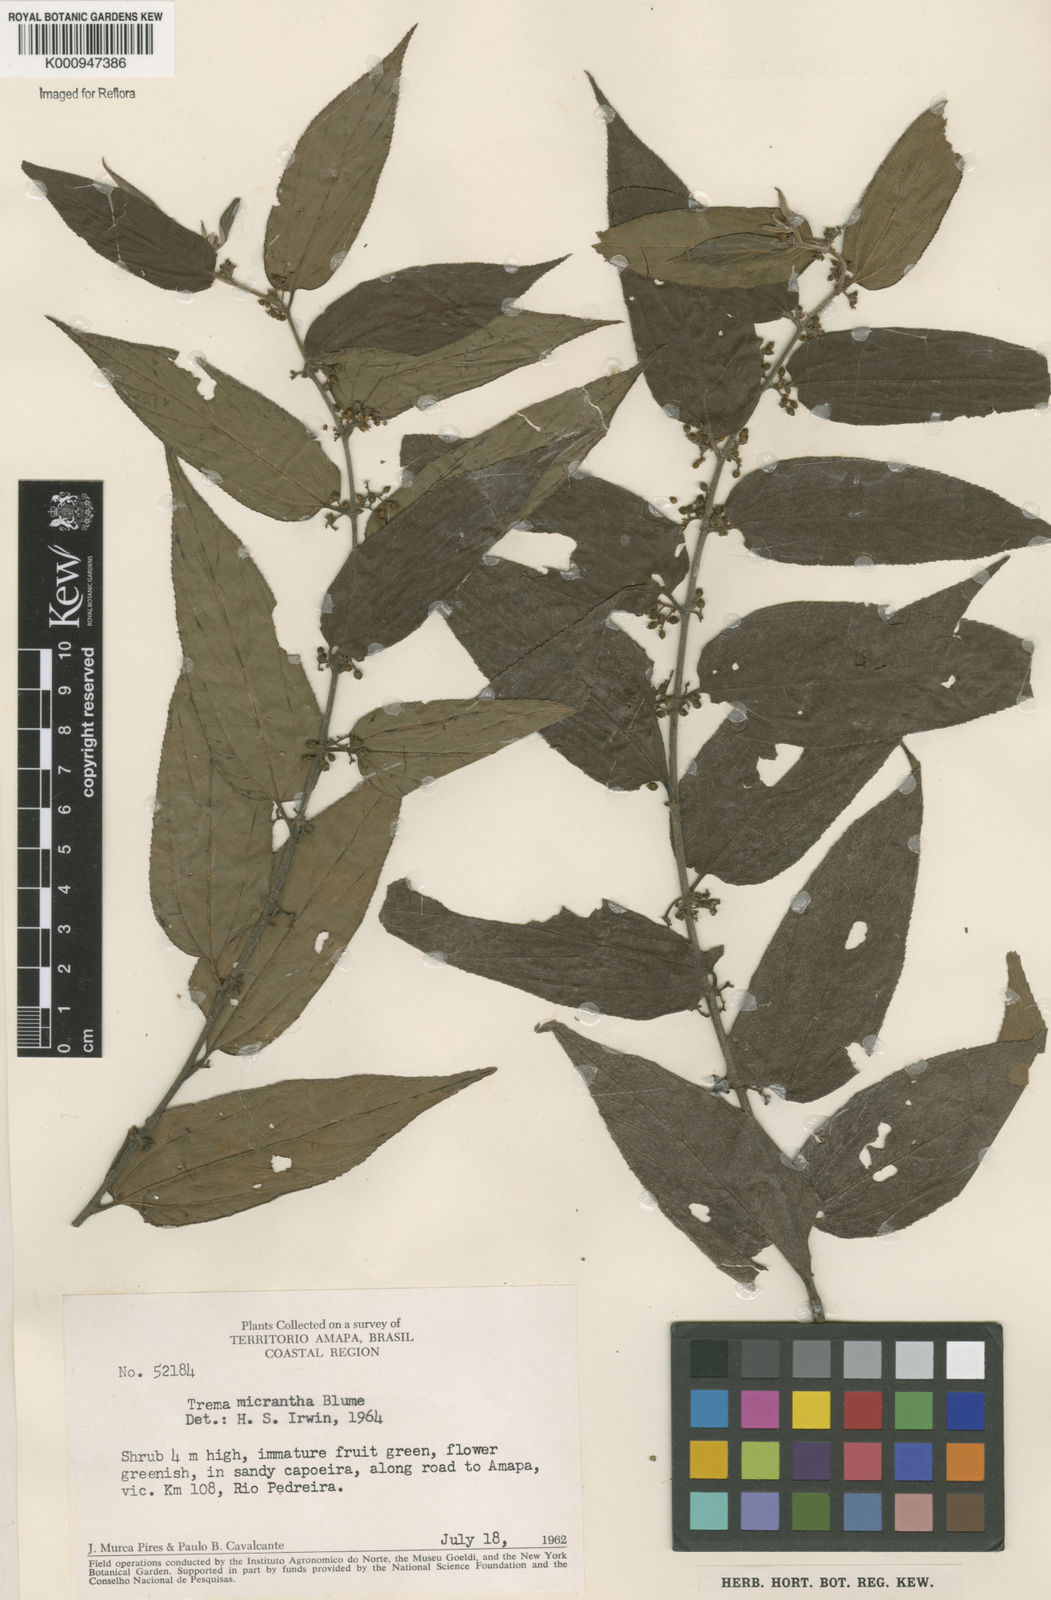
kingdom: Plantae
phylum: Tracheophyta
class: Magnoliopsida
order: Rosales
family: Cannabaceae
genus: Trema
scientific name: Trema micranthum
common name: Jamaican nettletree
